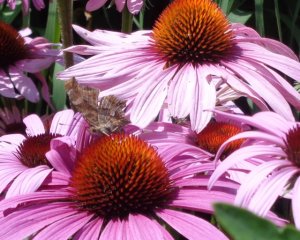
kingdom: Animalia
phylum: Arthropoda
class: Insecta
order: Lepidoptera
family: Nymphalidae
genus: Polygonia
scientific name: Polygonia comma
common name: Eastern Comma
